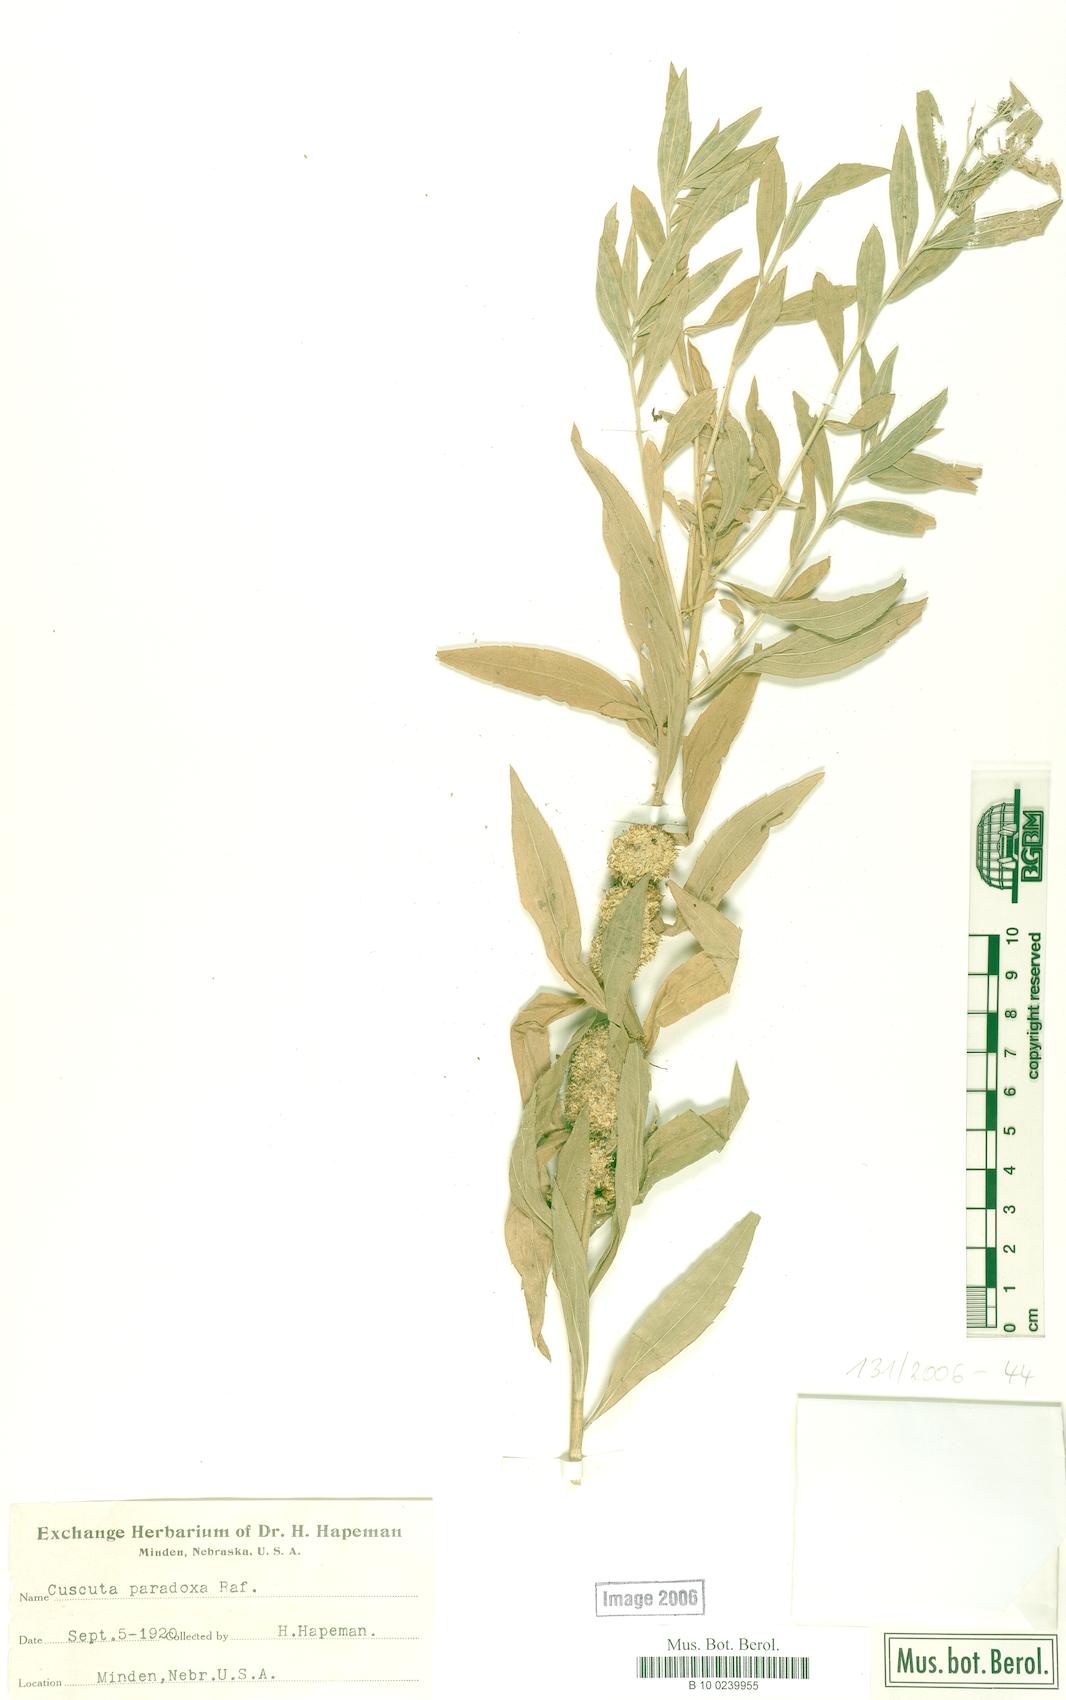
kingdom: Plantae
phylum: Tracheophyta
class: Magnoliopsida
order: Solanales
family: Convolvulaceae
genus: Cuscuta
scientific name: Cuscuta glomerata
